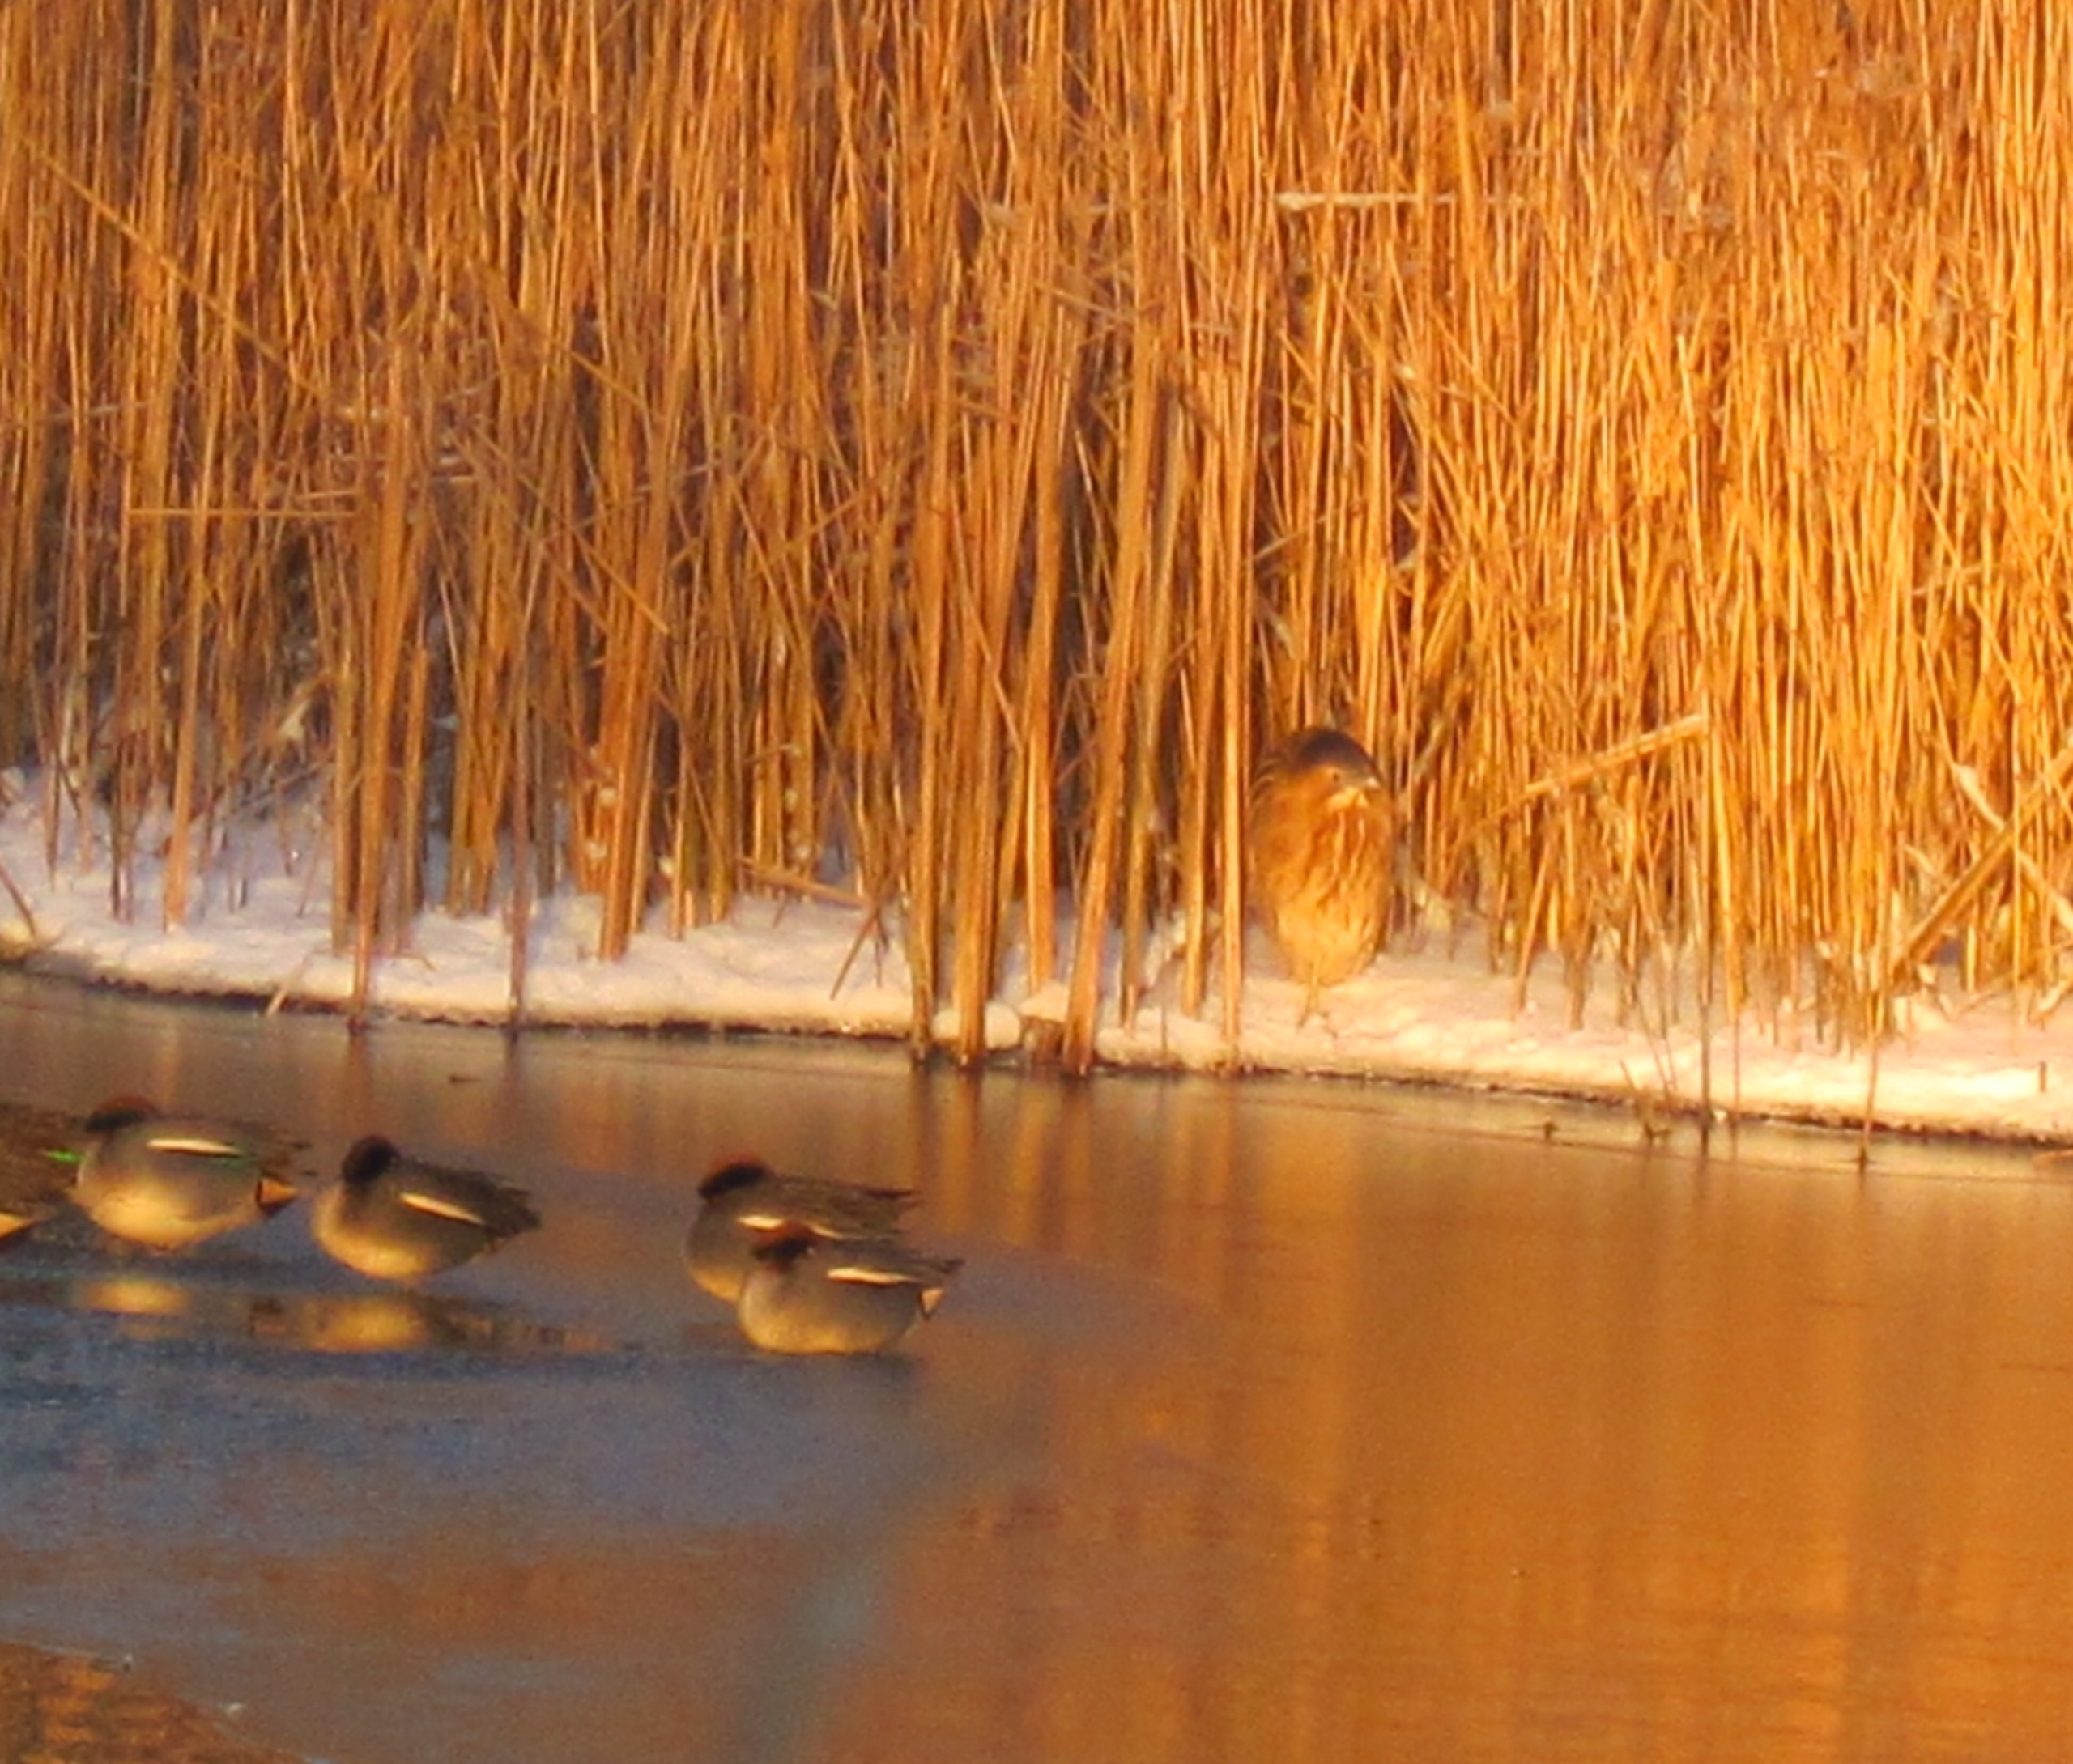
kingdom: Animalia
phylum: Chordata
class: Aves
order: Pelecaniformes
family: Ardeidae
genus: Botaurus
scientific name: Botaurus stellaris
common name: Rørdrum
